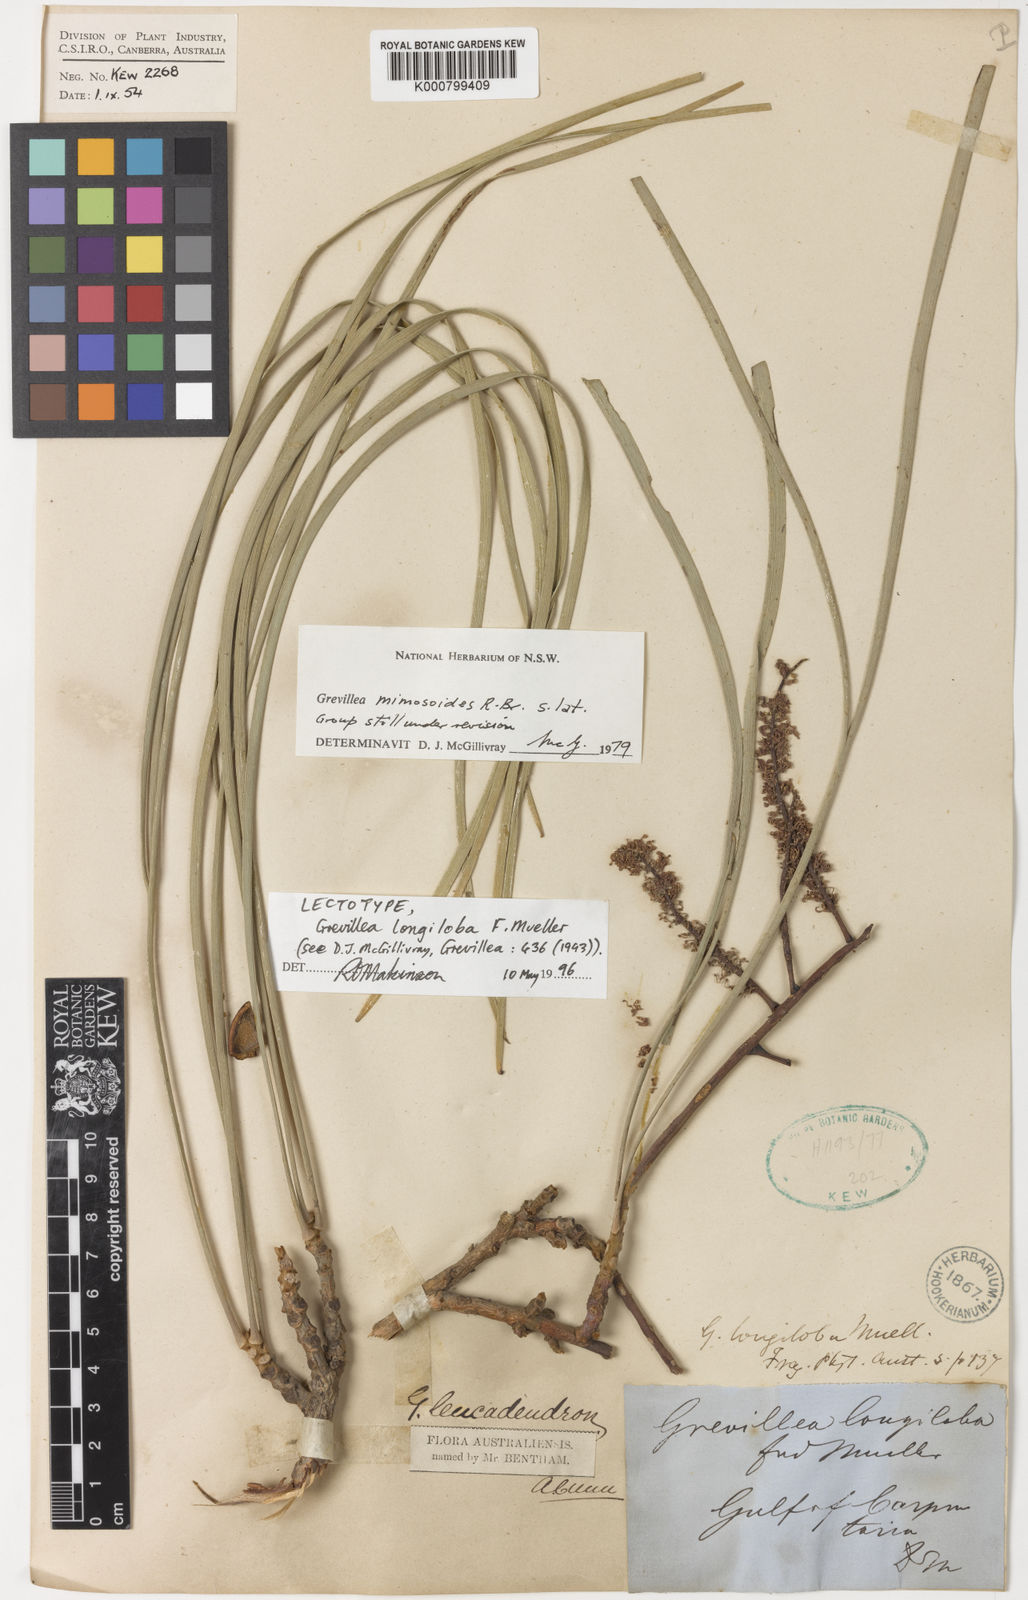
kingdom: Plantae
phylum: Tracheophyta
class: Magnoliopsida
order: Proteales
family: Proteaceae
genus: Grevillea
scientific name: Grevillea pyramidalis
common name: Caustictree
